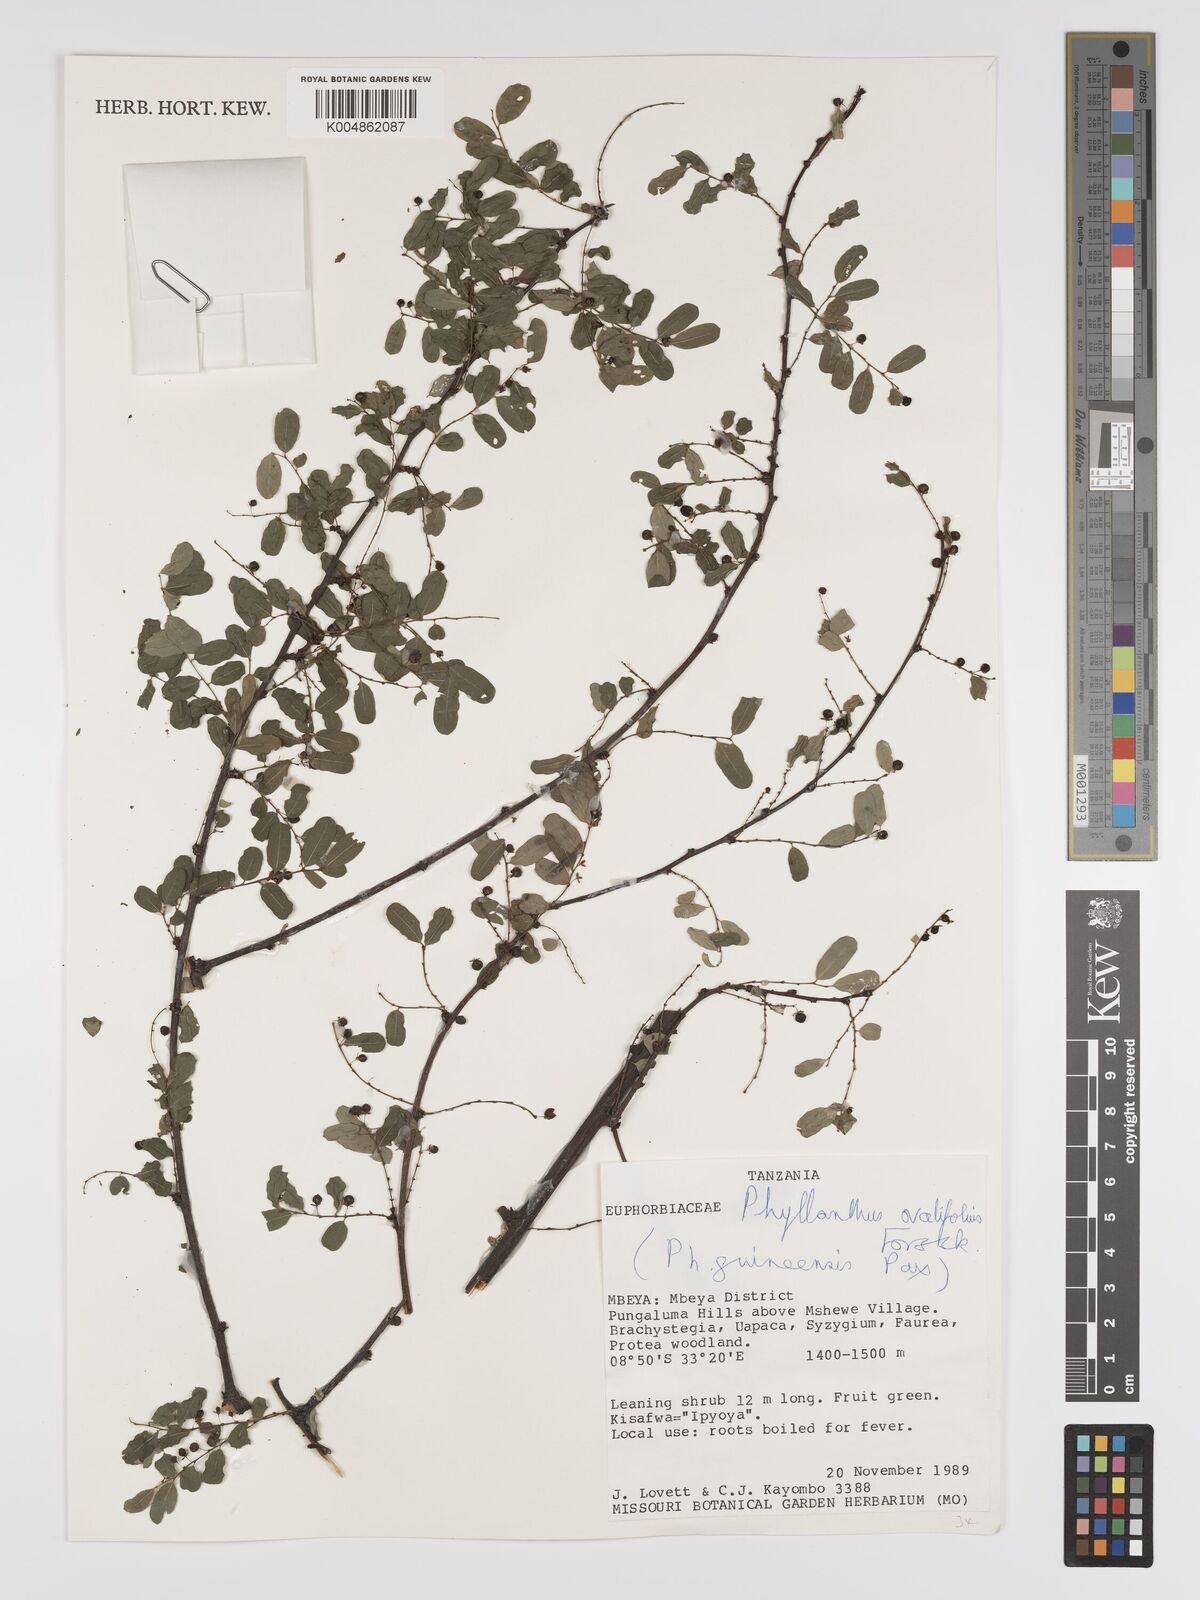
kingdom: Plantae
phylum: Tracheophyta
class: Magnoliopsida
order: Malpighiales
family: Phyllanthaceae
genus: Phyllanthus
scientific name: Phyllanthus ovalifolius
